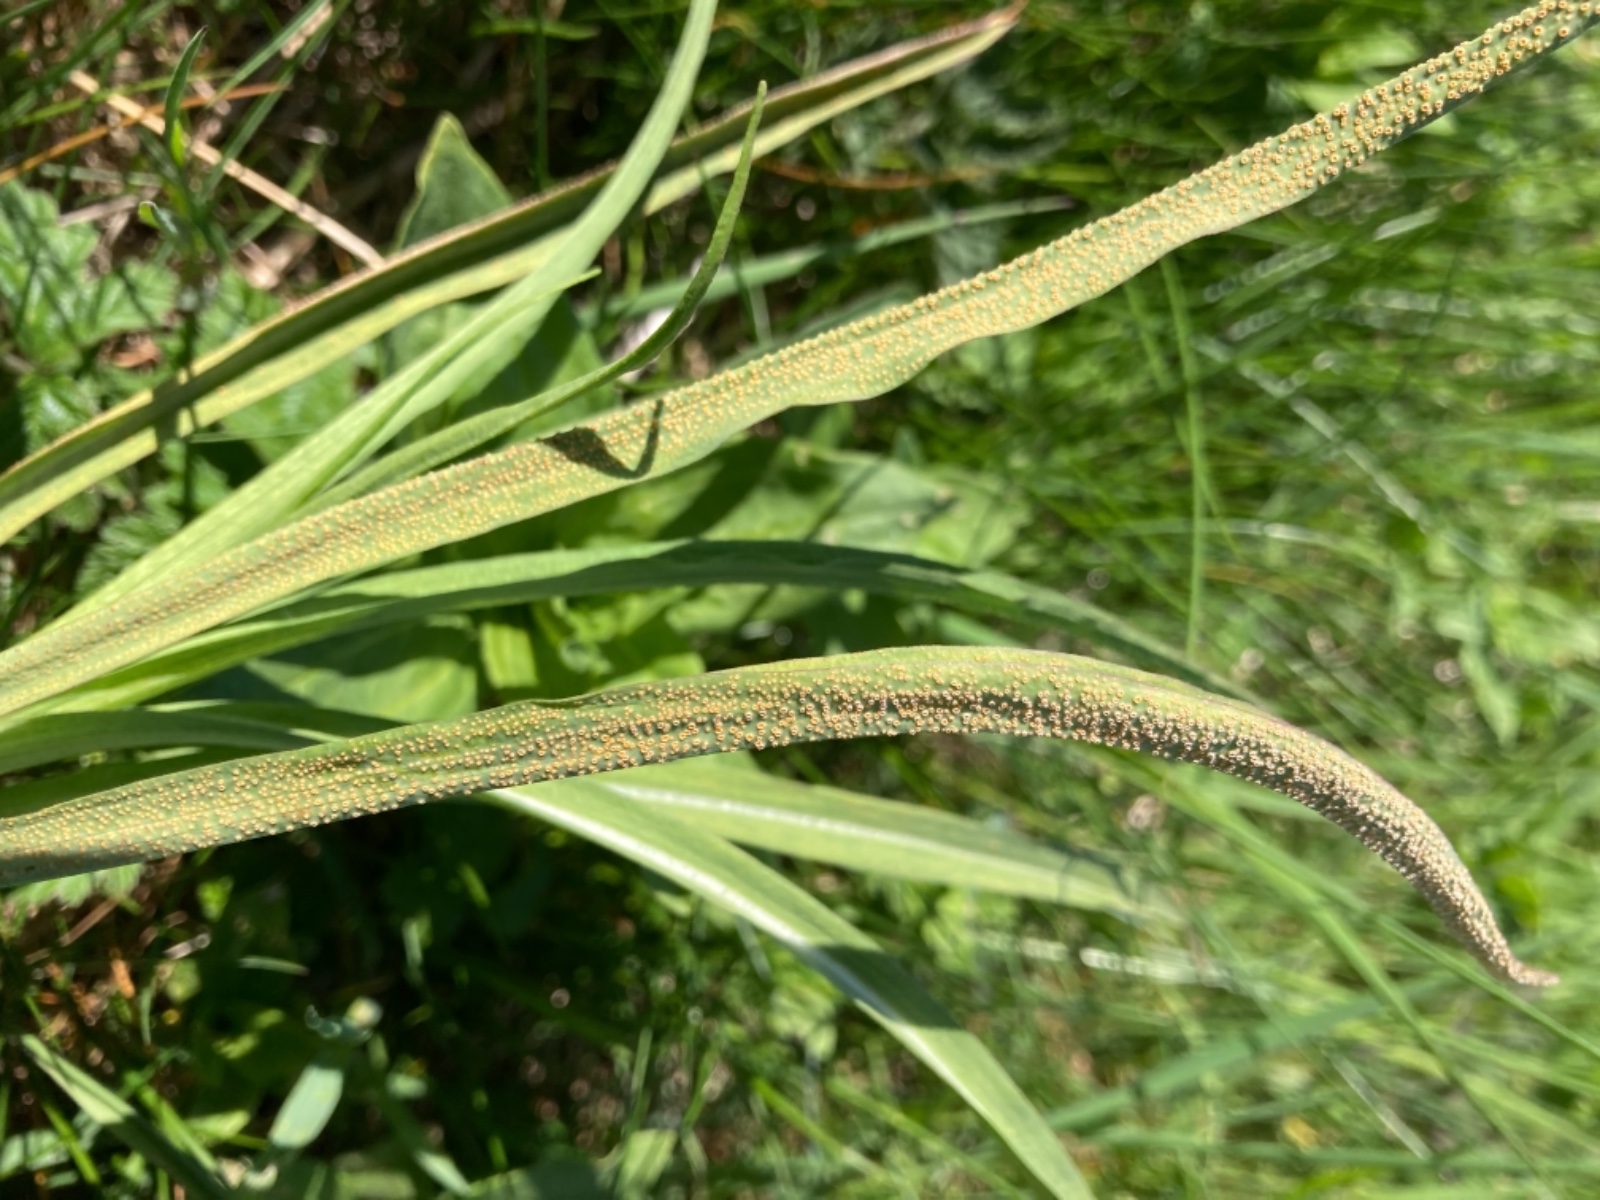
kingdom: Fungi
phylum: Basidiomycota
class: Pucciniomycetes
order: Pucciniales
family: Pucciniaceae
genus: Puccinia
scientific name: Puccinia hysterium
